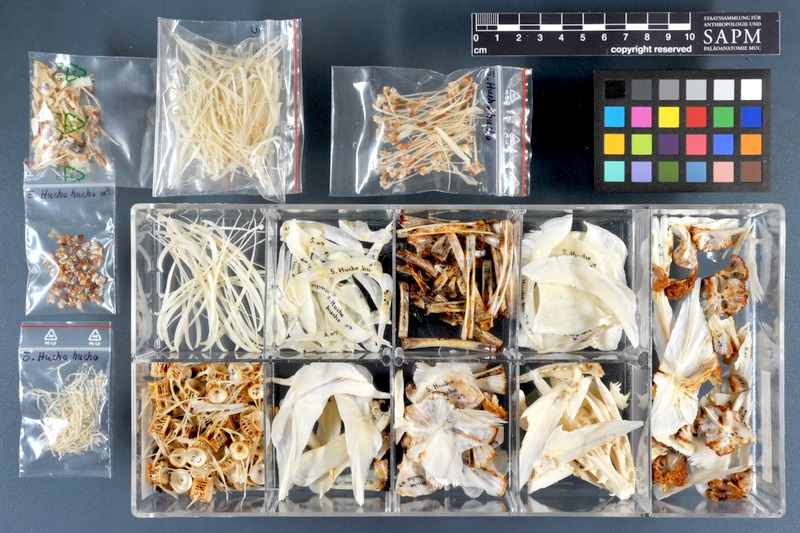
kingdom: Animalia
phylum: Chordata
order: Salmoniformes
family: Salmonidae
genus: Hucho
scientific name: Hucho hucho
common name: Huchen (danube salmon)
